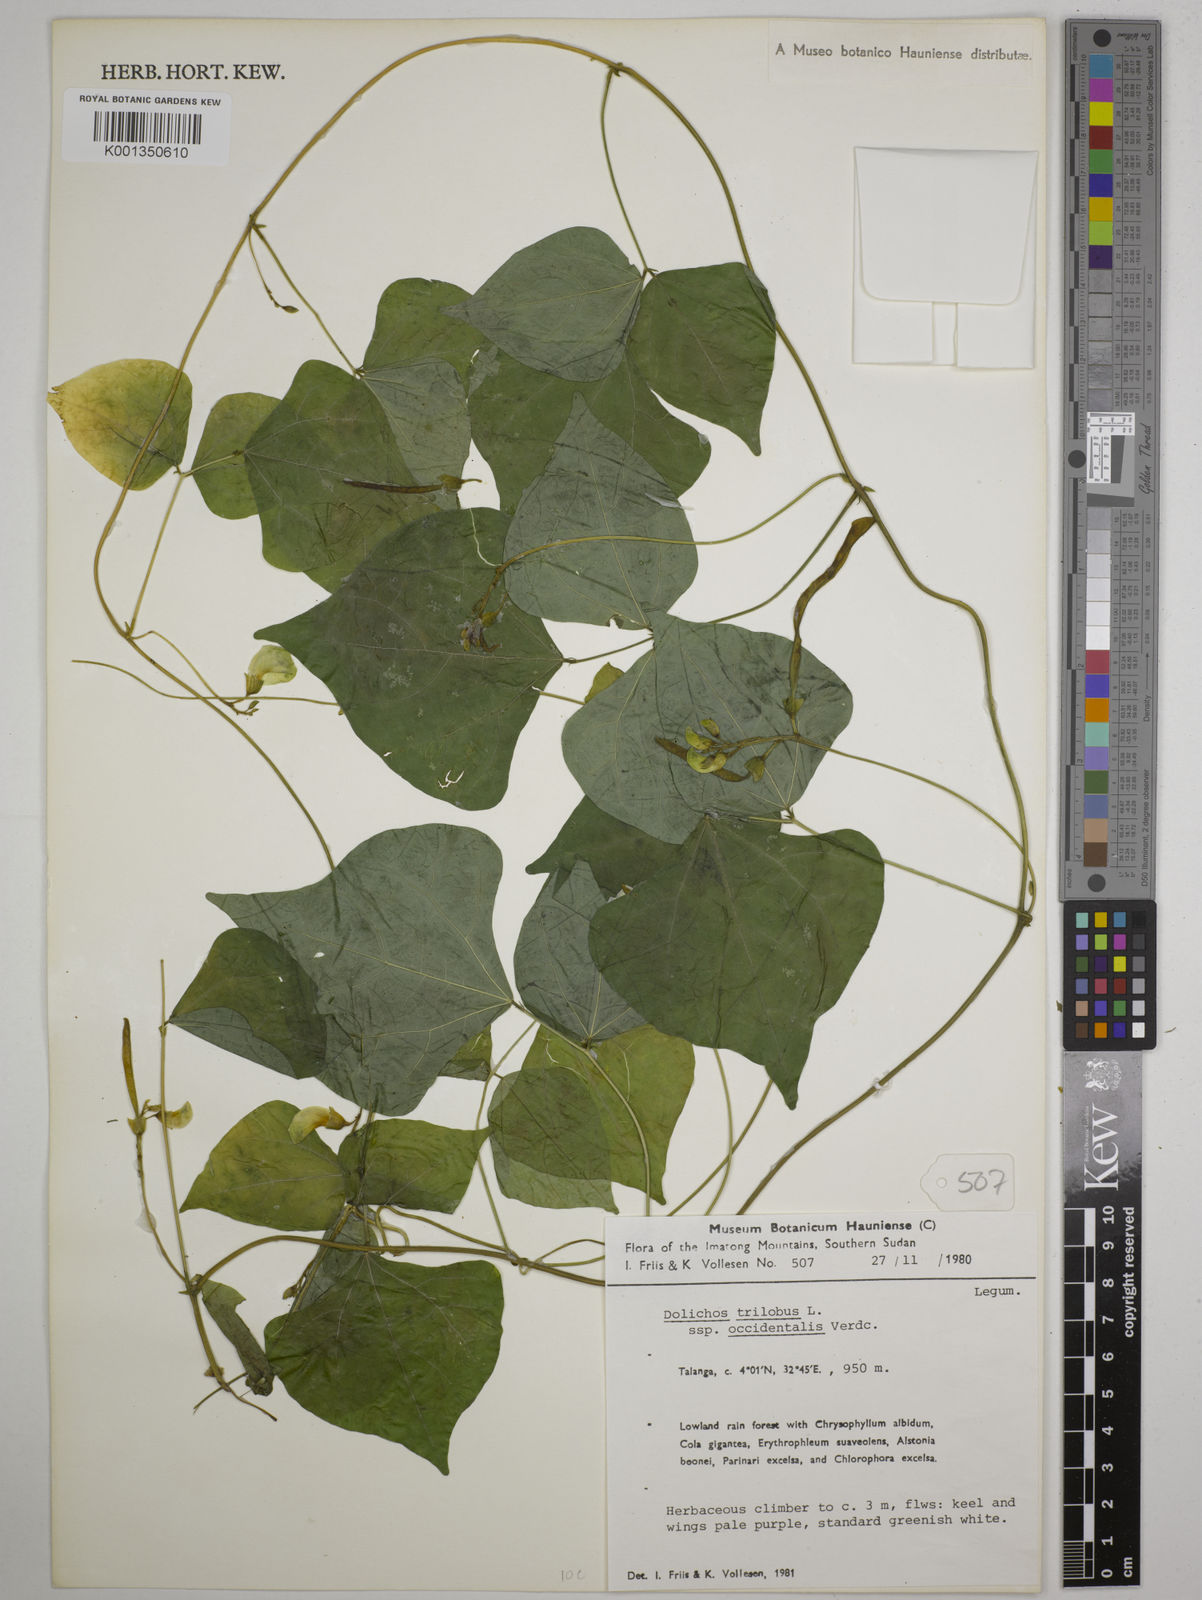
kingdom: Plantae
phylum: Tracheophyta
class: Magnoliopsida
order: Fabales
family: Fabaceae
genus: Dolichos
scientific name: Dolichos trilobus
